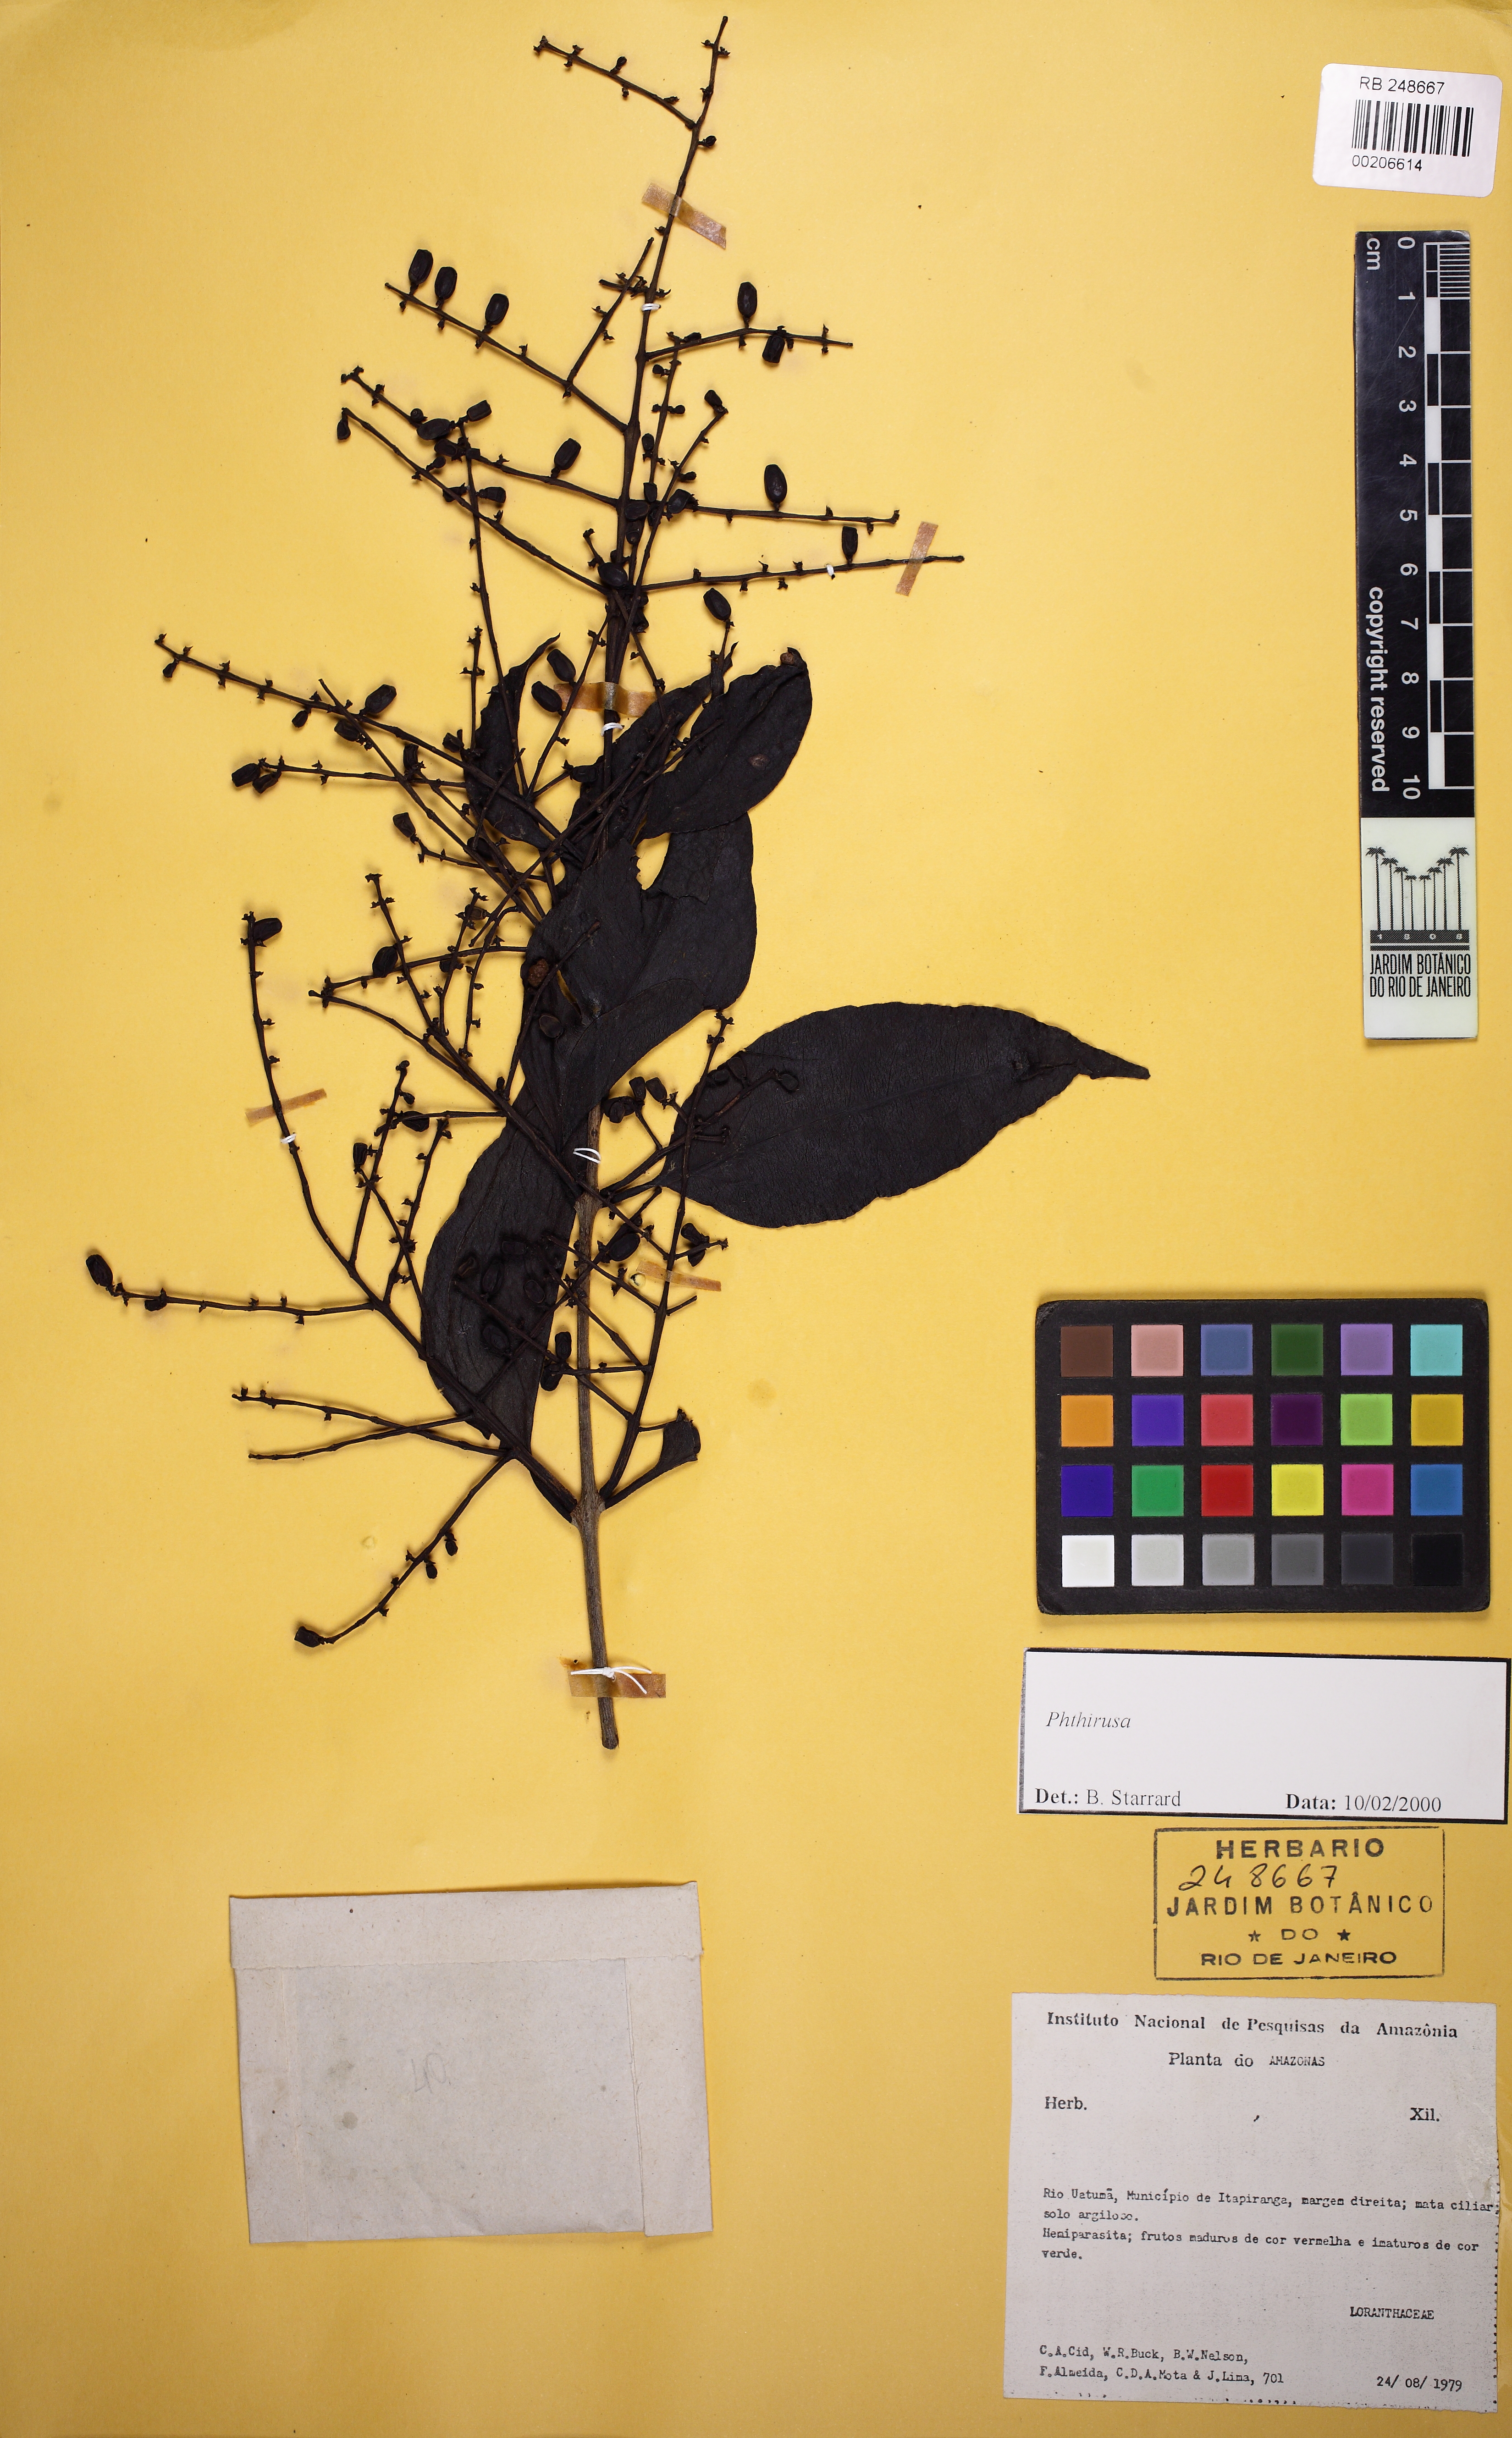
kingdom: Plantae
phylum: Tracheophyta
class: Magnoliopsida
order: Santalales
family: Loranthaceae
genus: Passovia
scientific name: Passovia pedunculata
